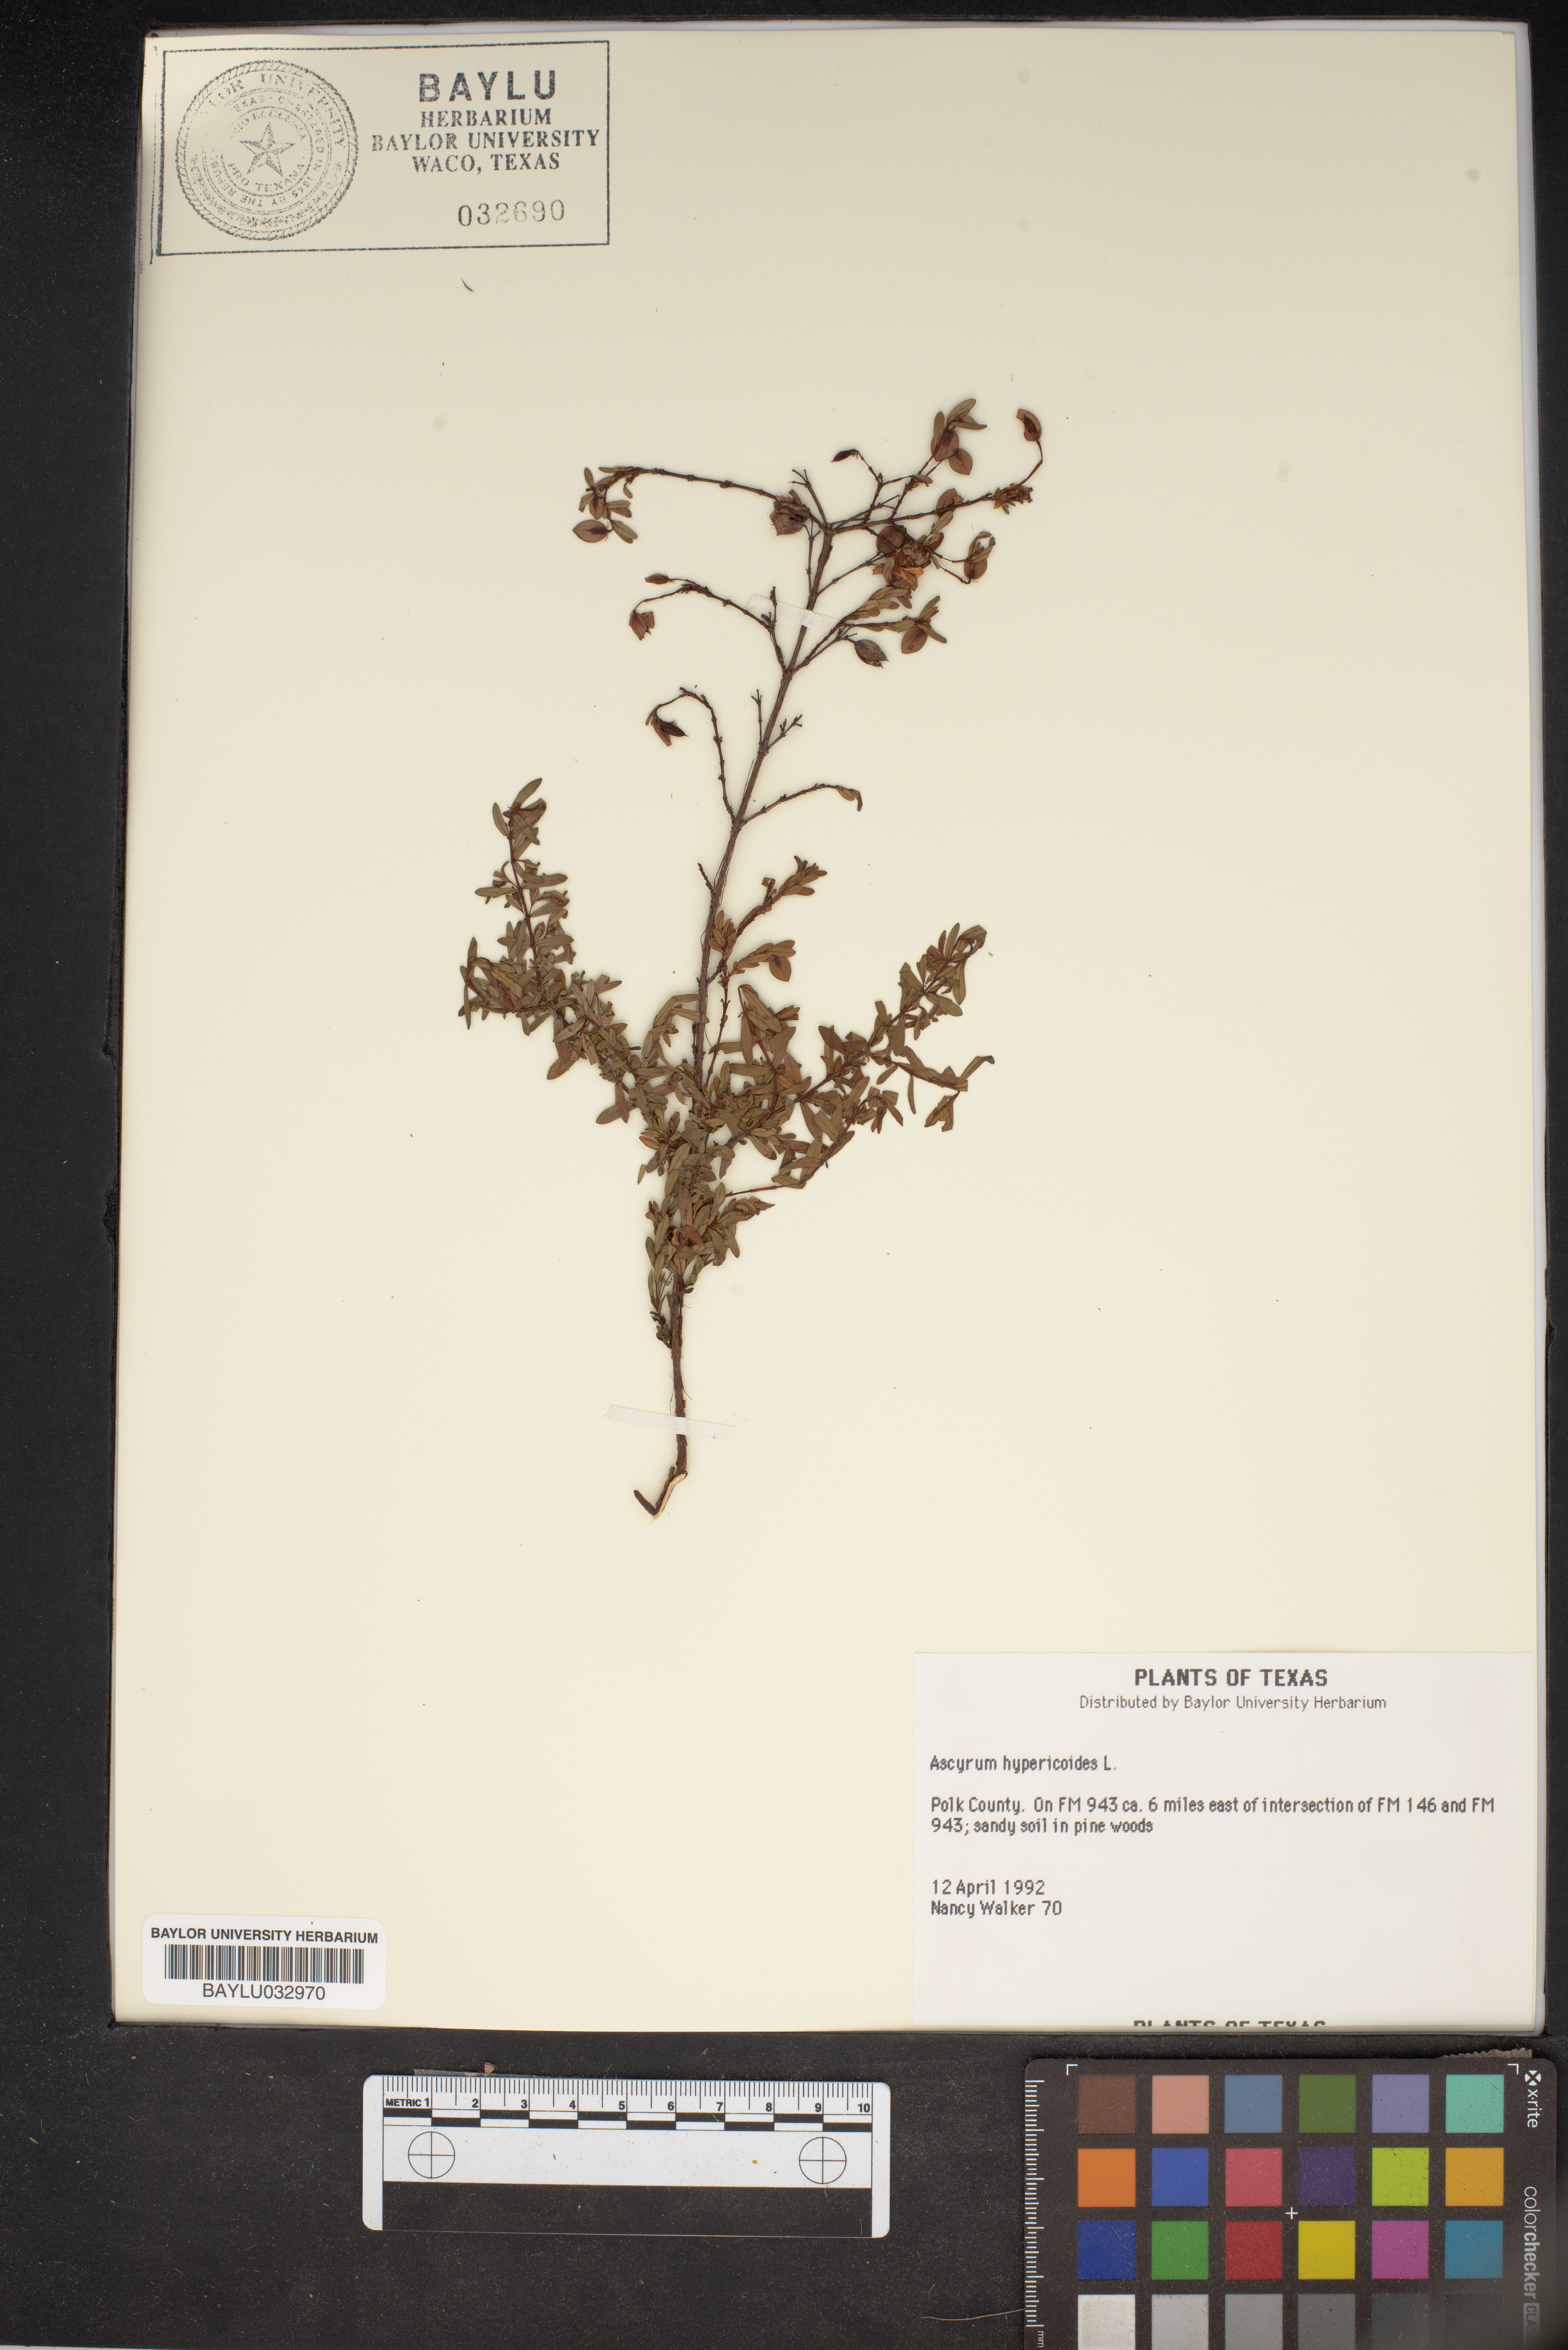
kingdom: Plantae
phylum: Tracheophyta
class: Magnoliopsida
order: Malpighiales
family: Hypericaceae
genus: Hypericum
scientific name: Hypericum hypericoides
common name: St. andrew's cross
